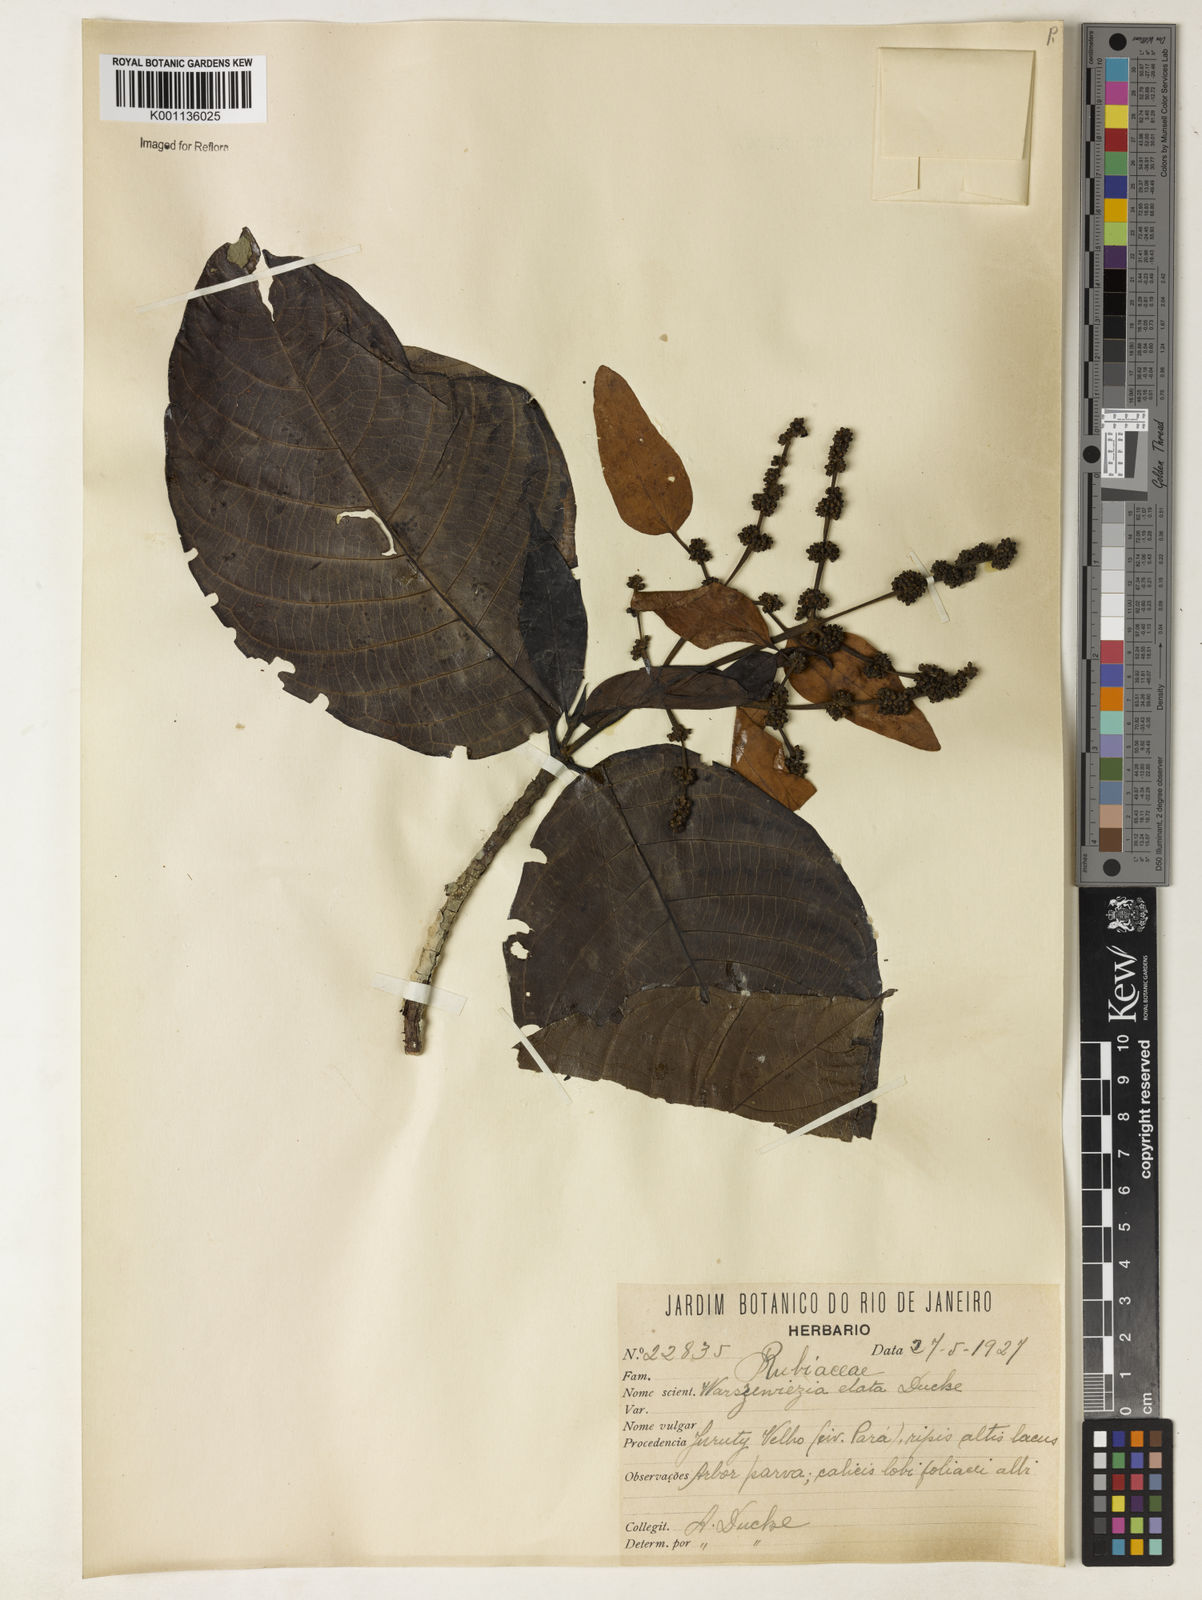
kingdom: Plantae
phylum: Tracheophyta
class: Magnoliopsida
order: Gentianales
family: Rubiaceae
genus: Warszewiczia
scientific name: Warszewiczia elata
